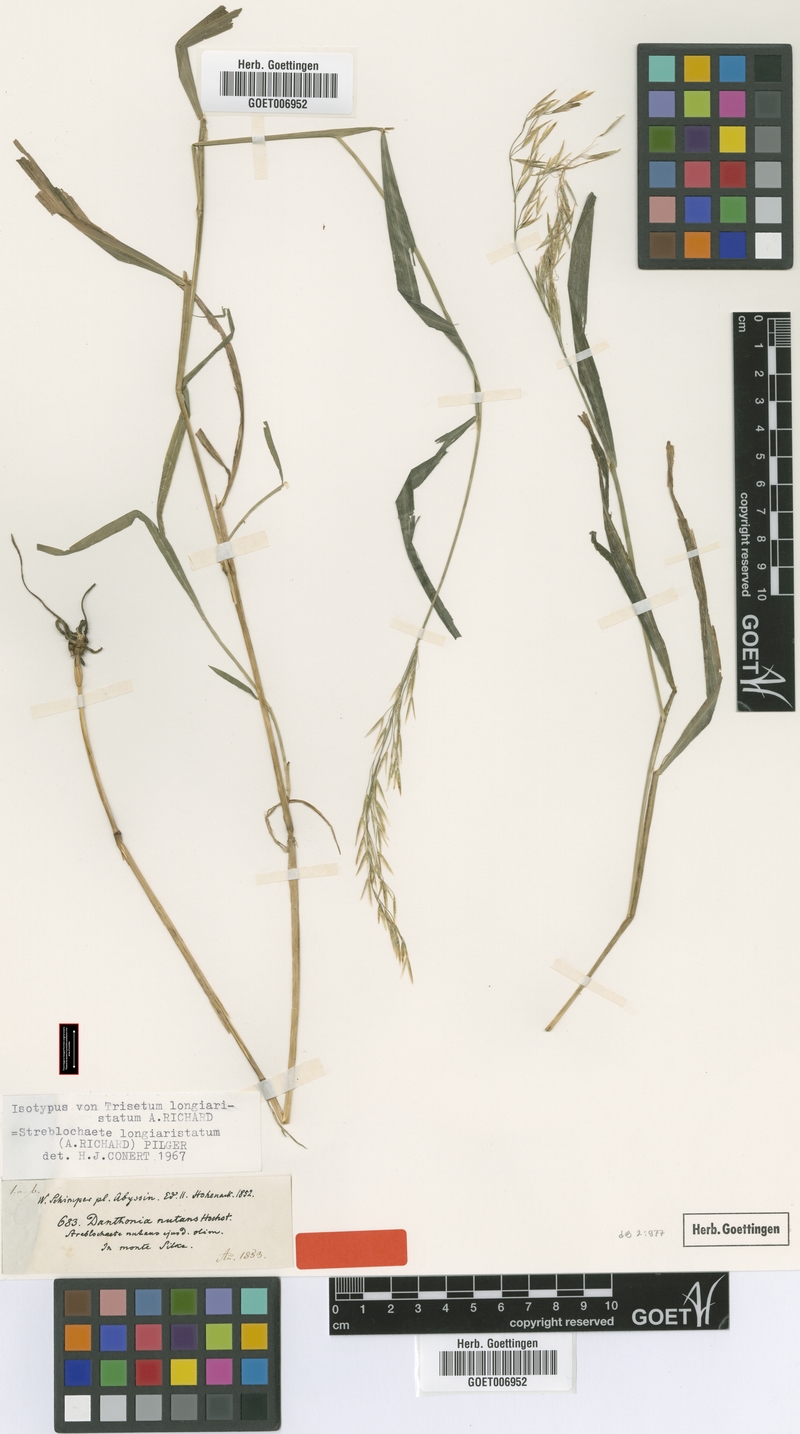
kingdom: Plantae
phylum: Tracheophyta
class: Liliopsida
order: Poales
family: Poaceae
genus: Koordersiochloa
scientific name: Koordersiochloa longiarista
